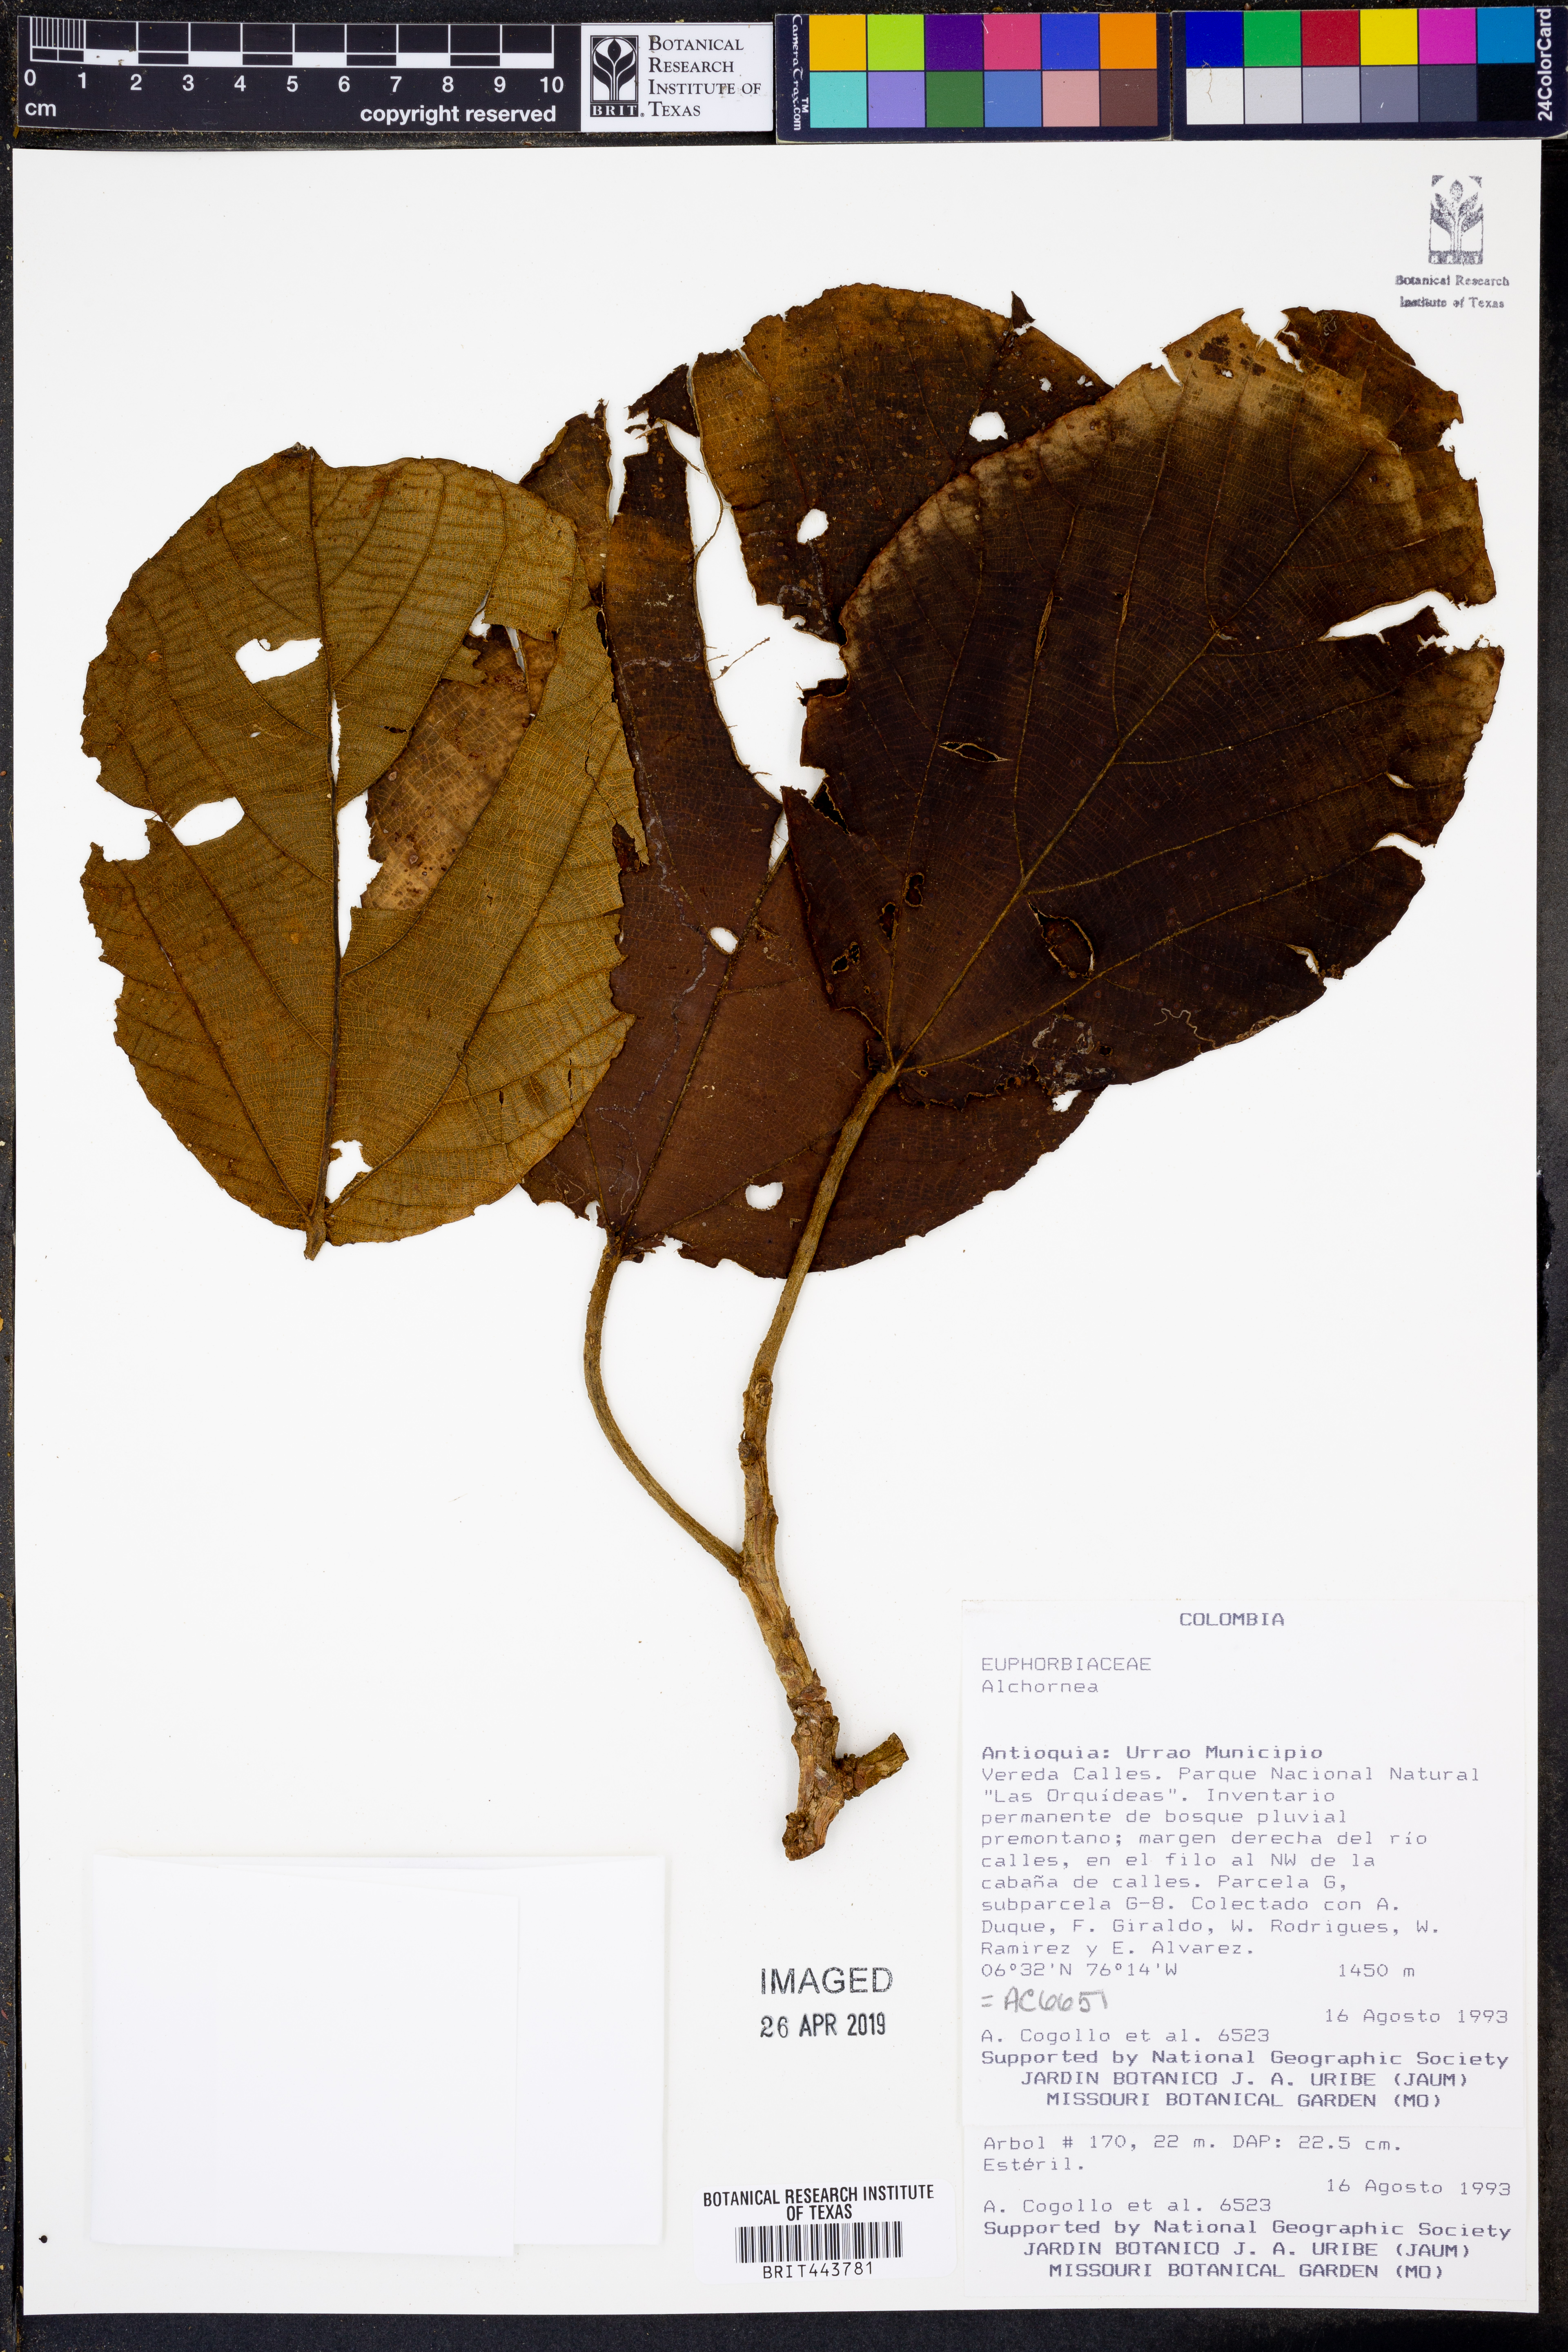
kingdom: Plantae
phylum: Tracheophyta
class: Magnoliopsida
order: Malpighiales
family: Euphorbiaceae
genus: Alchornea
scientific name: Alchornea
